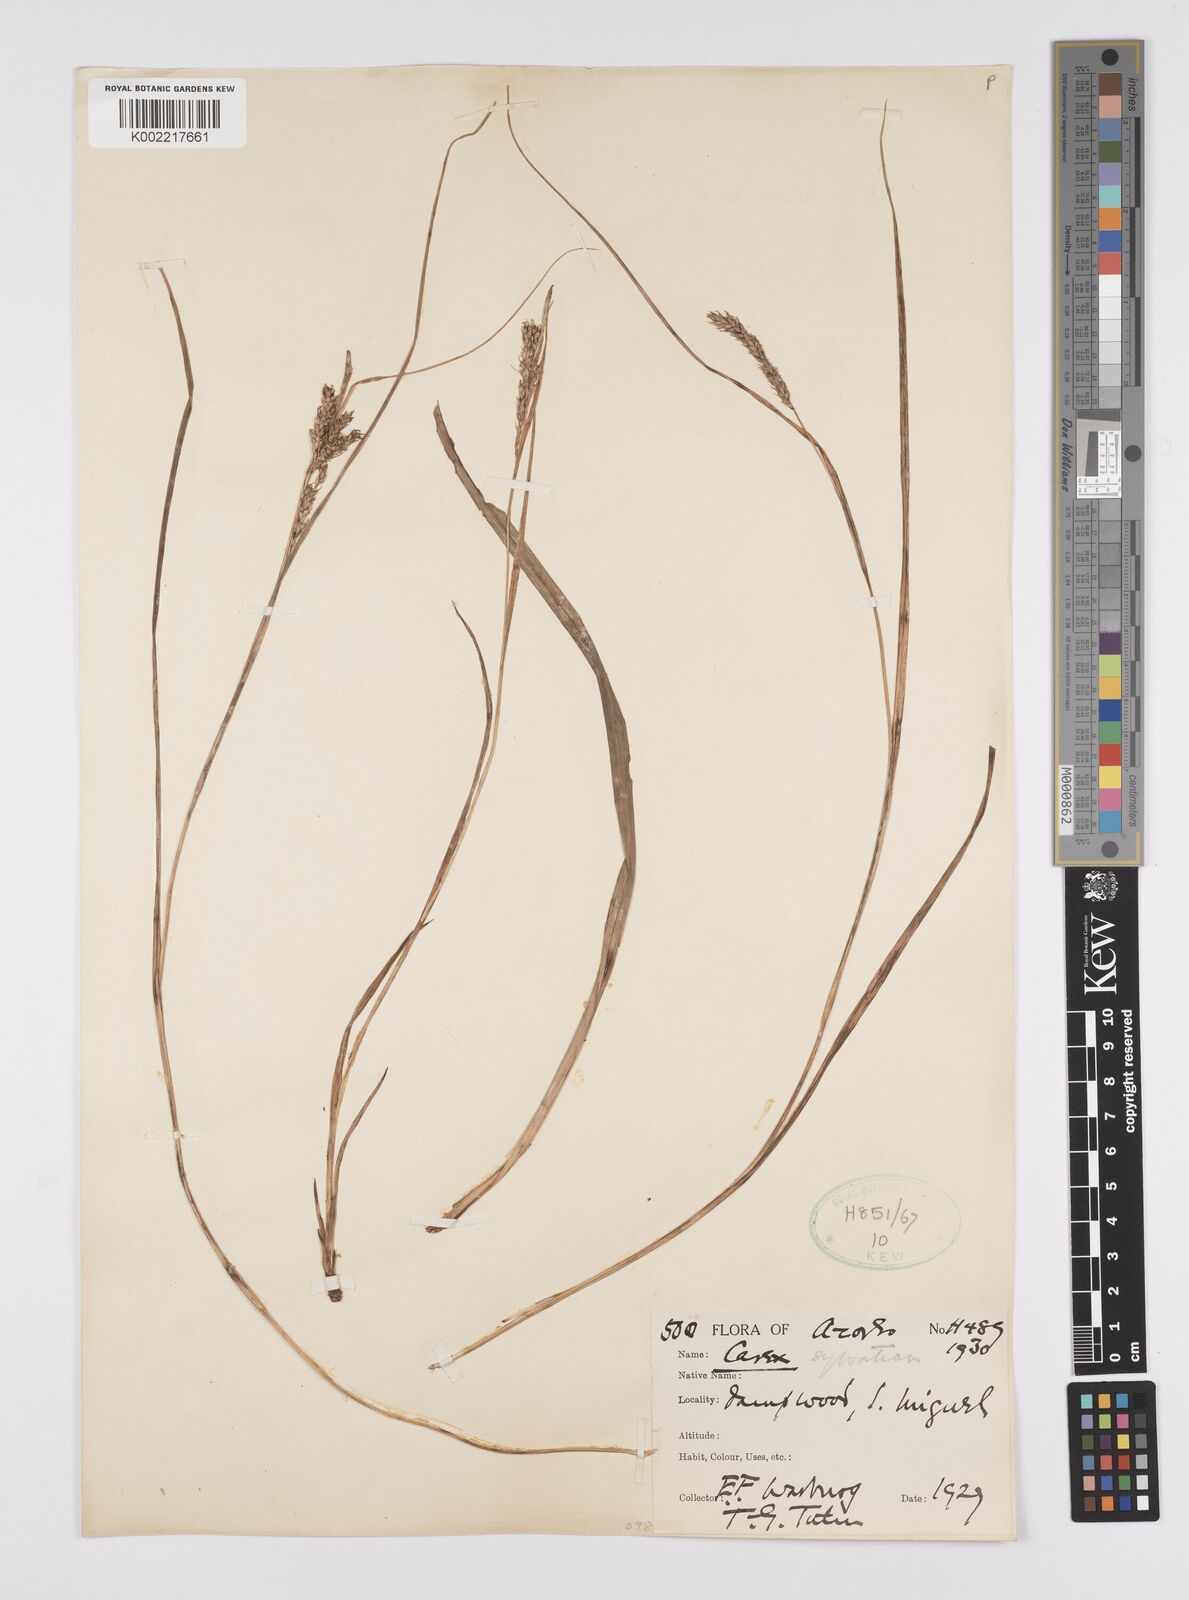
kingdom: Plantae
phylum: Tracheophyta
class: Liliopsida
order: Poales
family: Cyperaceae
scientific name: Cyperaceae
